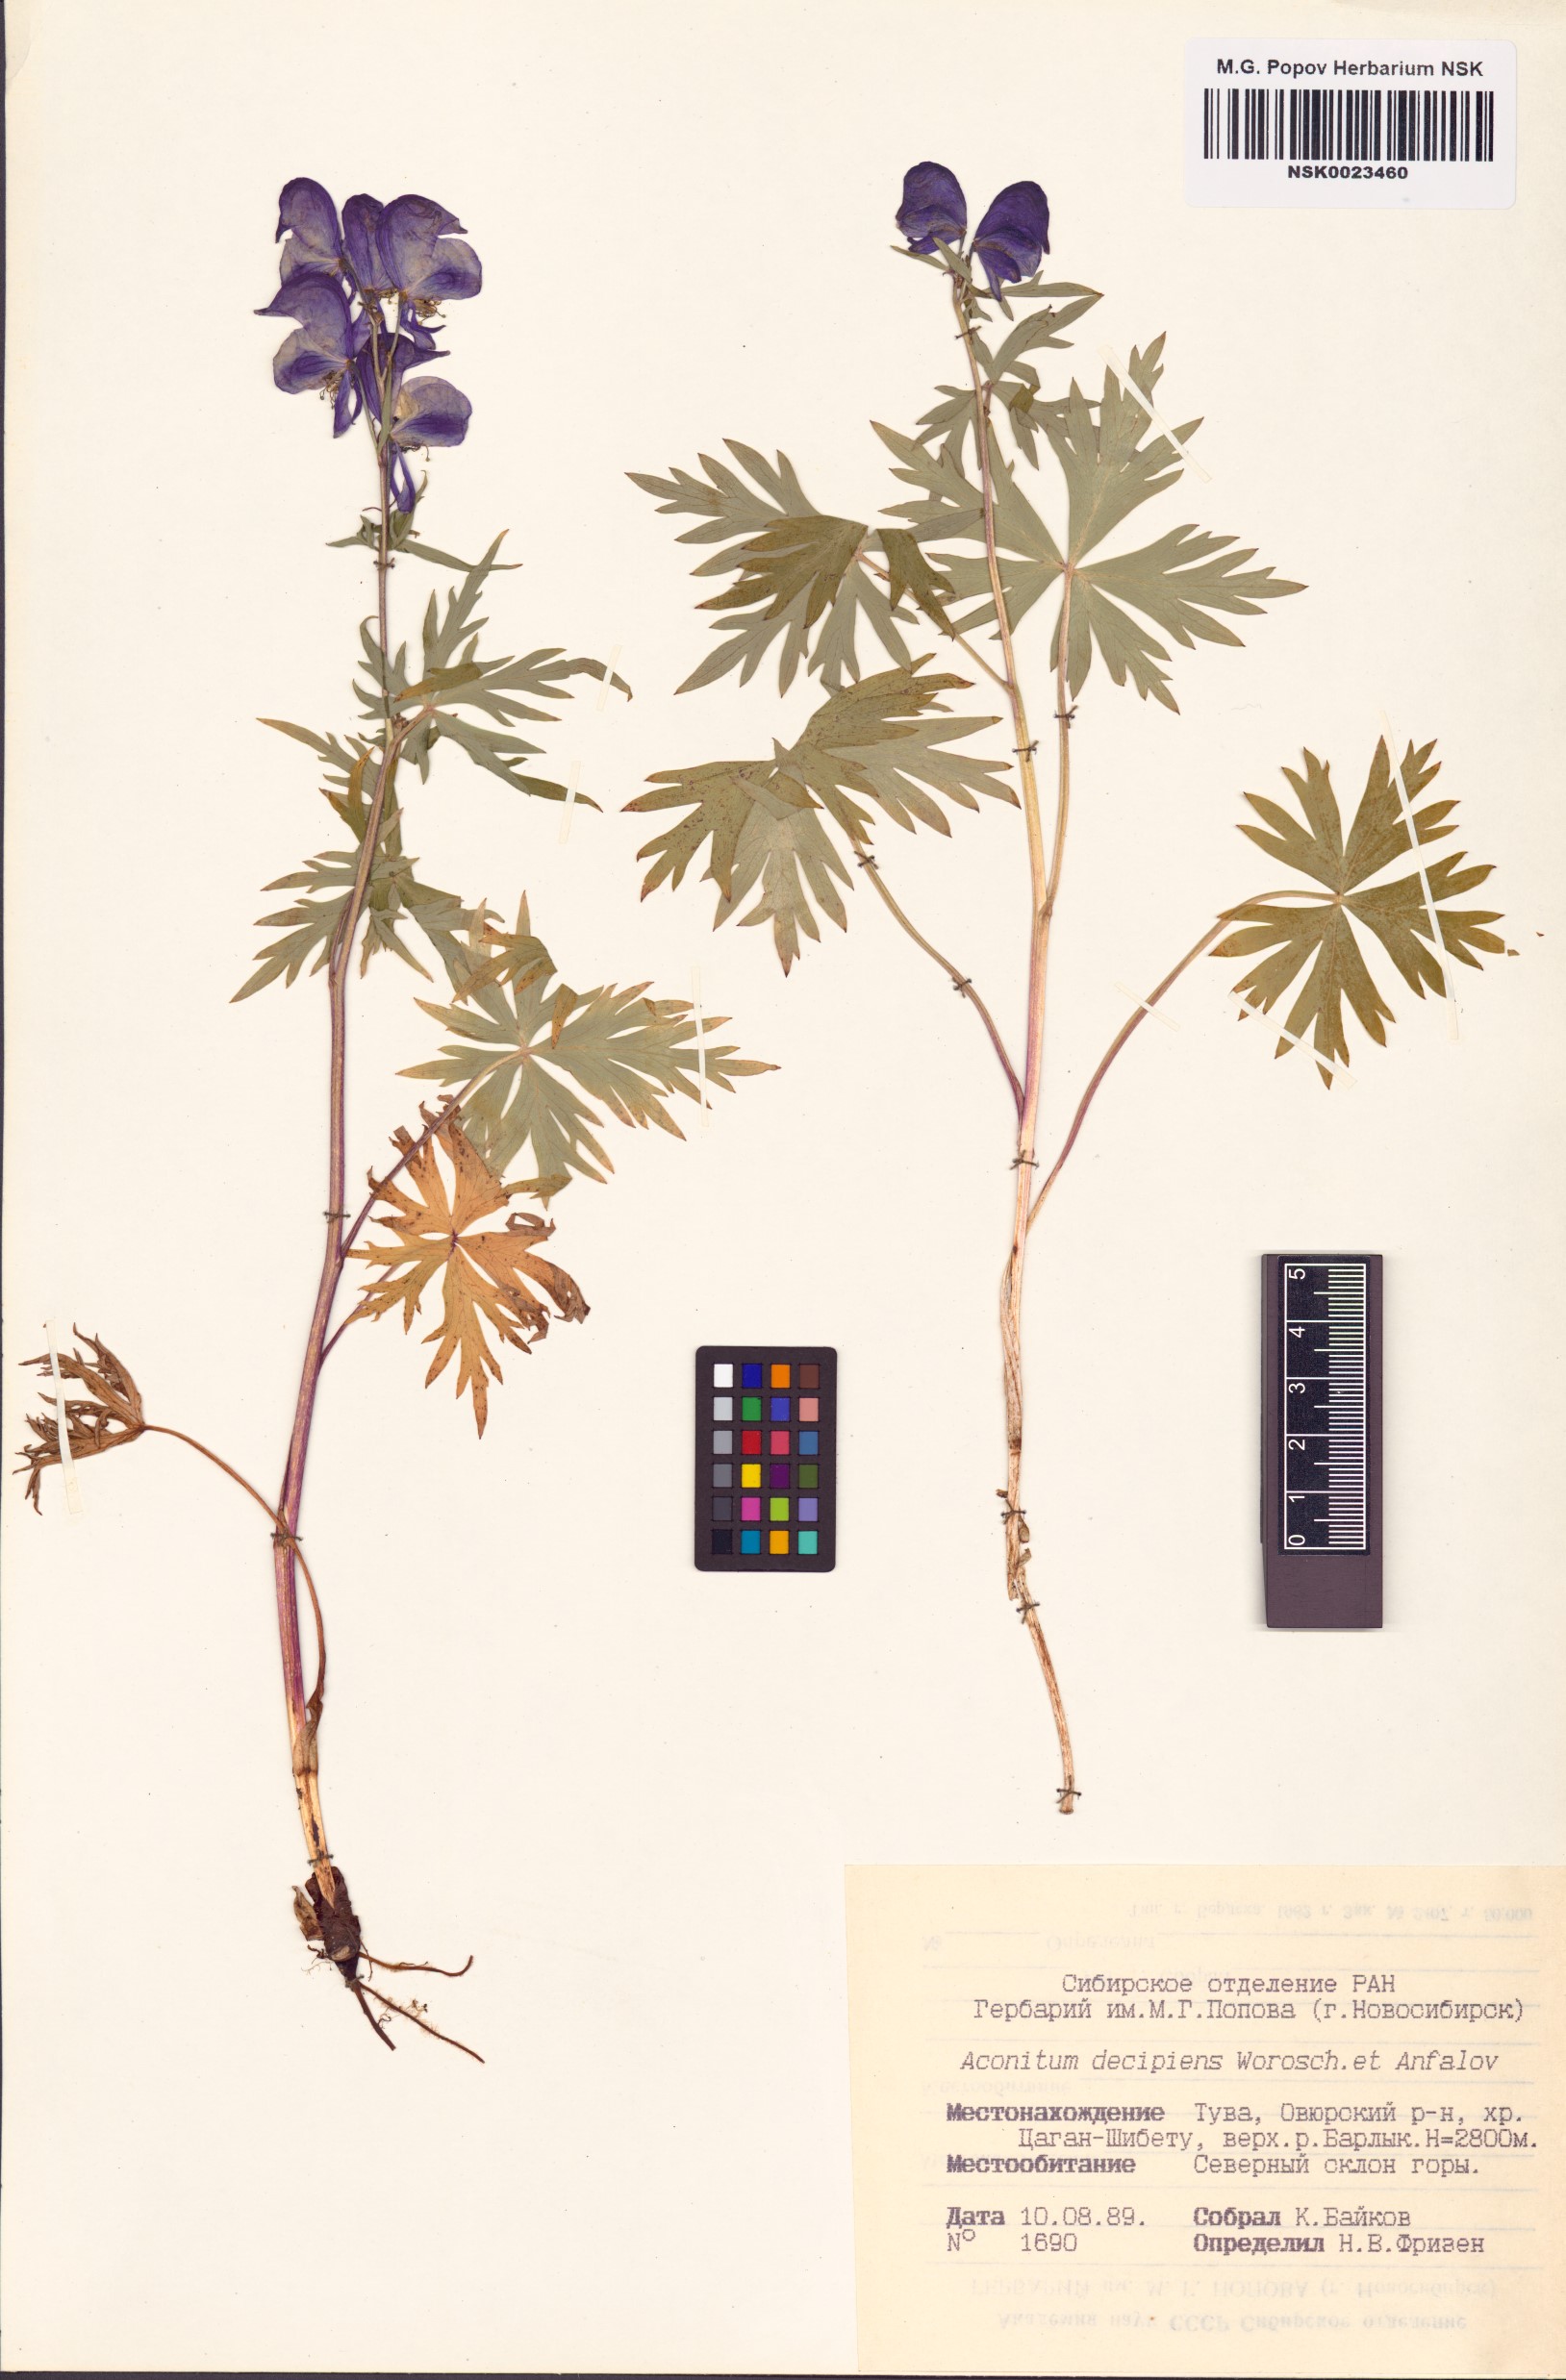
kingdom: Plantae
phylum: Tracheophyta
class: Magnoliopsida
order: Ranunculales
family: Ranunculaceae
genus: Aconitum
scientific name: Aconitum decipiens
